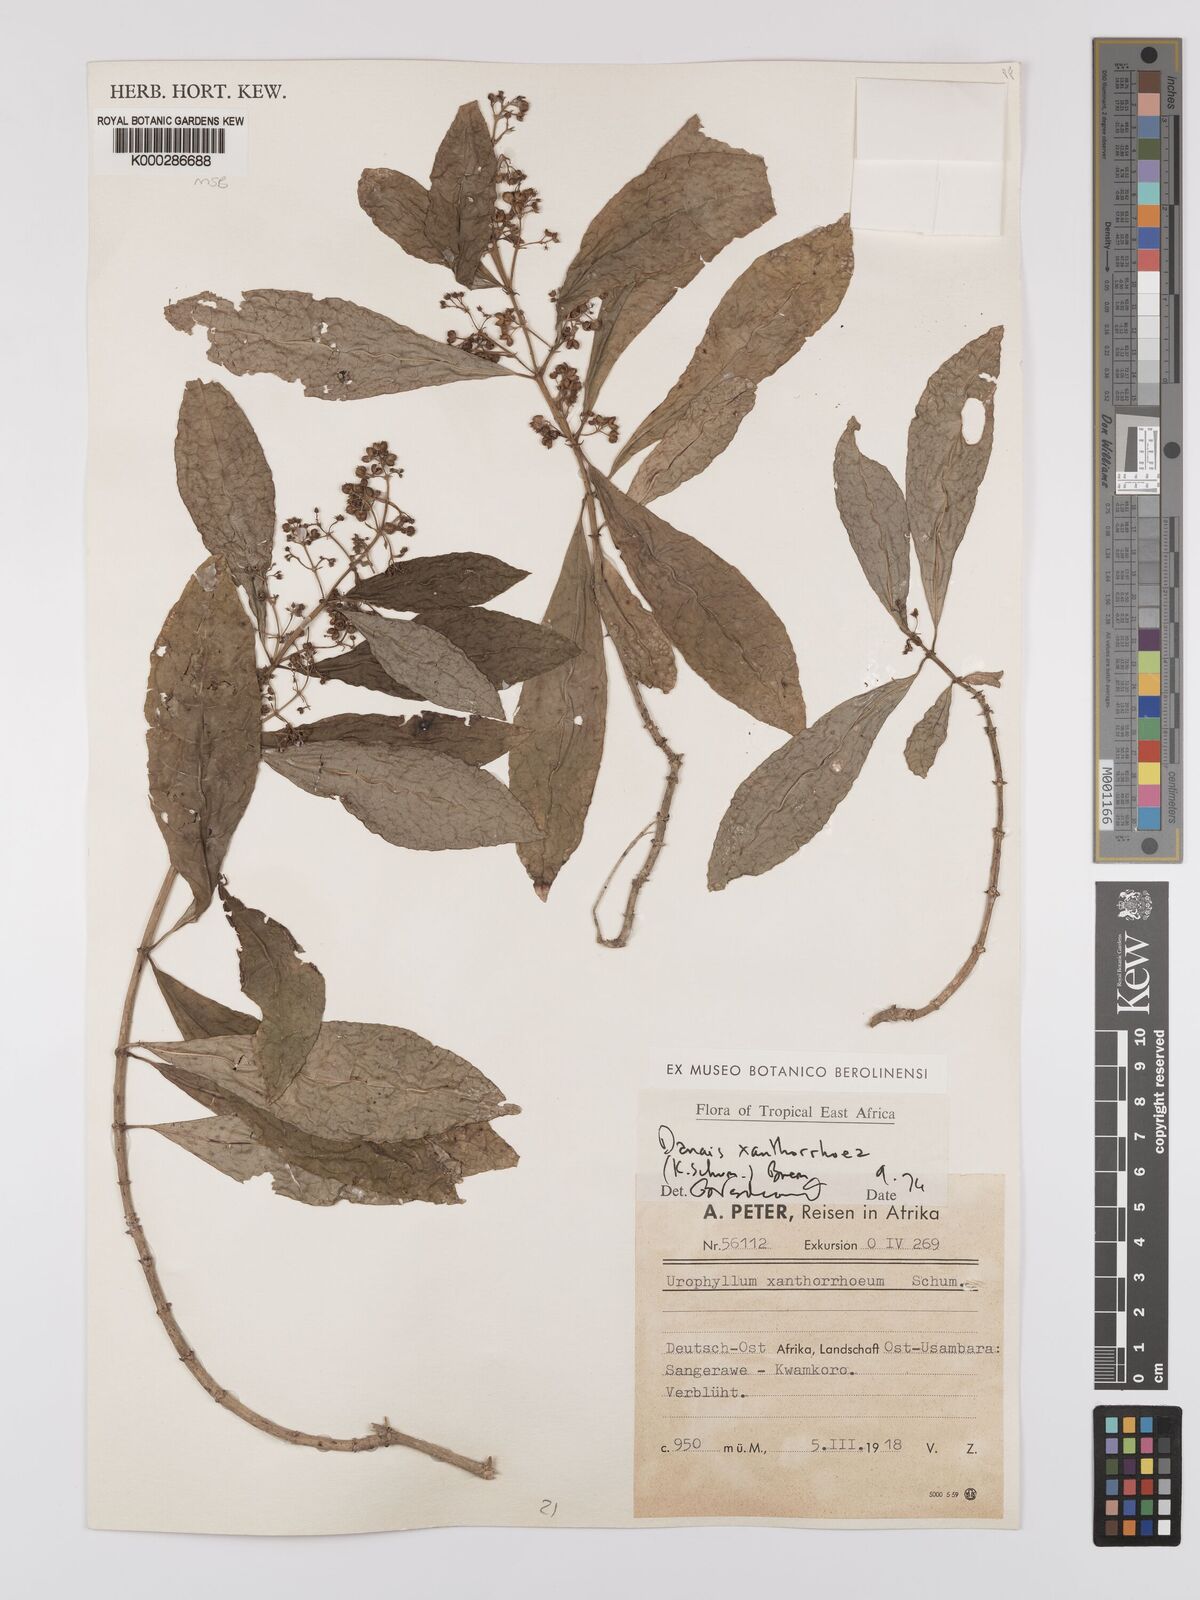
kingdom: Plantae
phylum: Tracheophyta
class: Magnoliopsida
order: Gentianales
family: Rubiaceae
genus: Danais
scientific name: Danais xanthorrhoea
